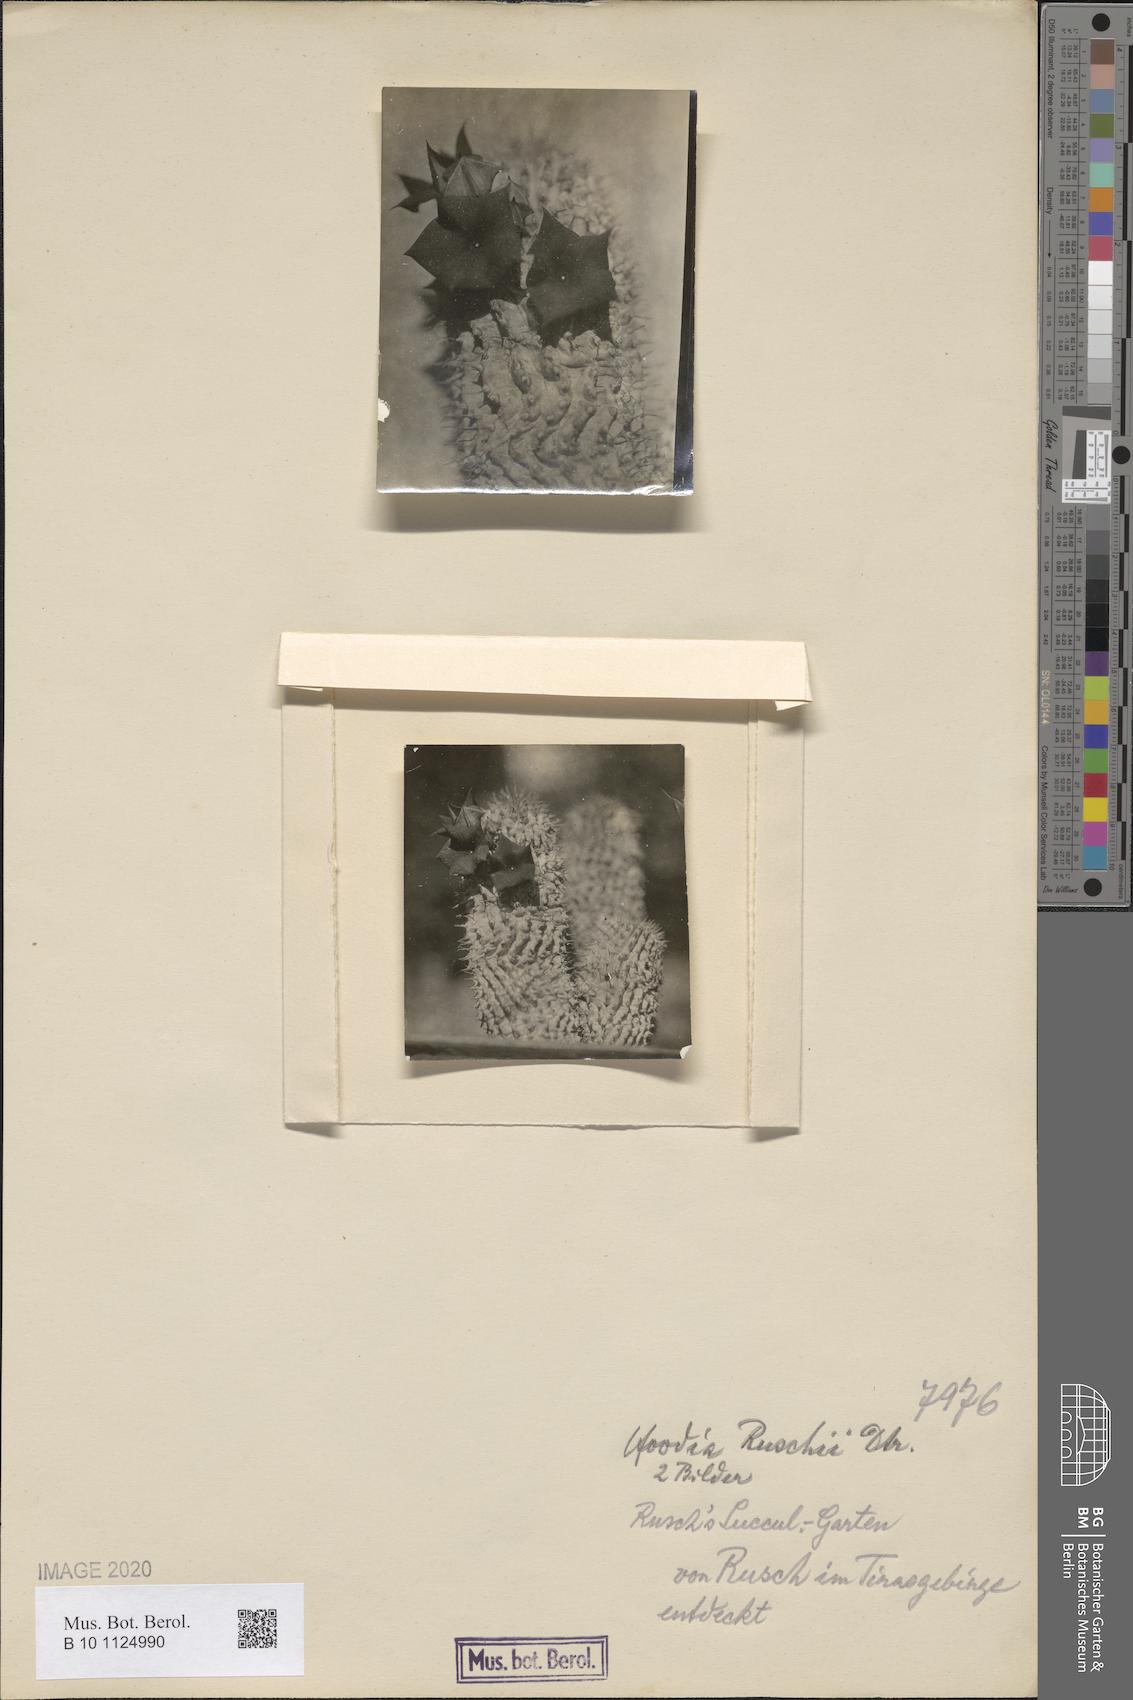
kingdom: Plantae
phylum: Tracheophyta
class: Magnoliopsida
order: Gentianales
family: Apocynaceae
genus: Ceropegia
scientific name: Ceropegia ruschii
